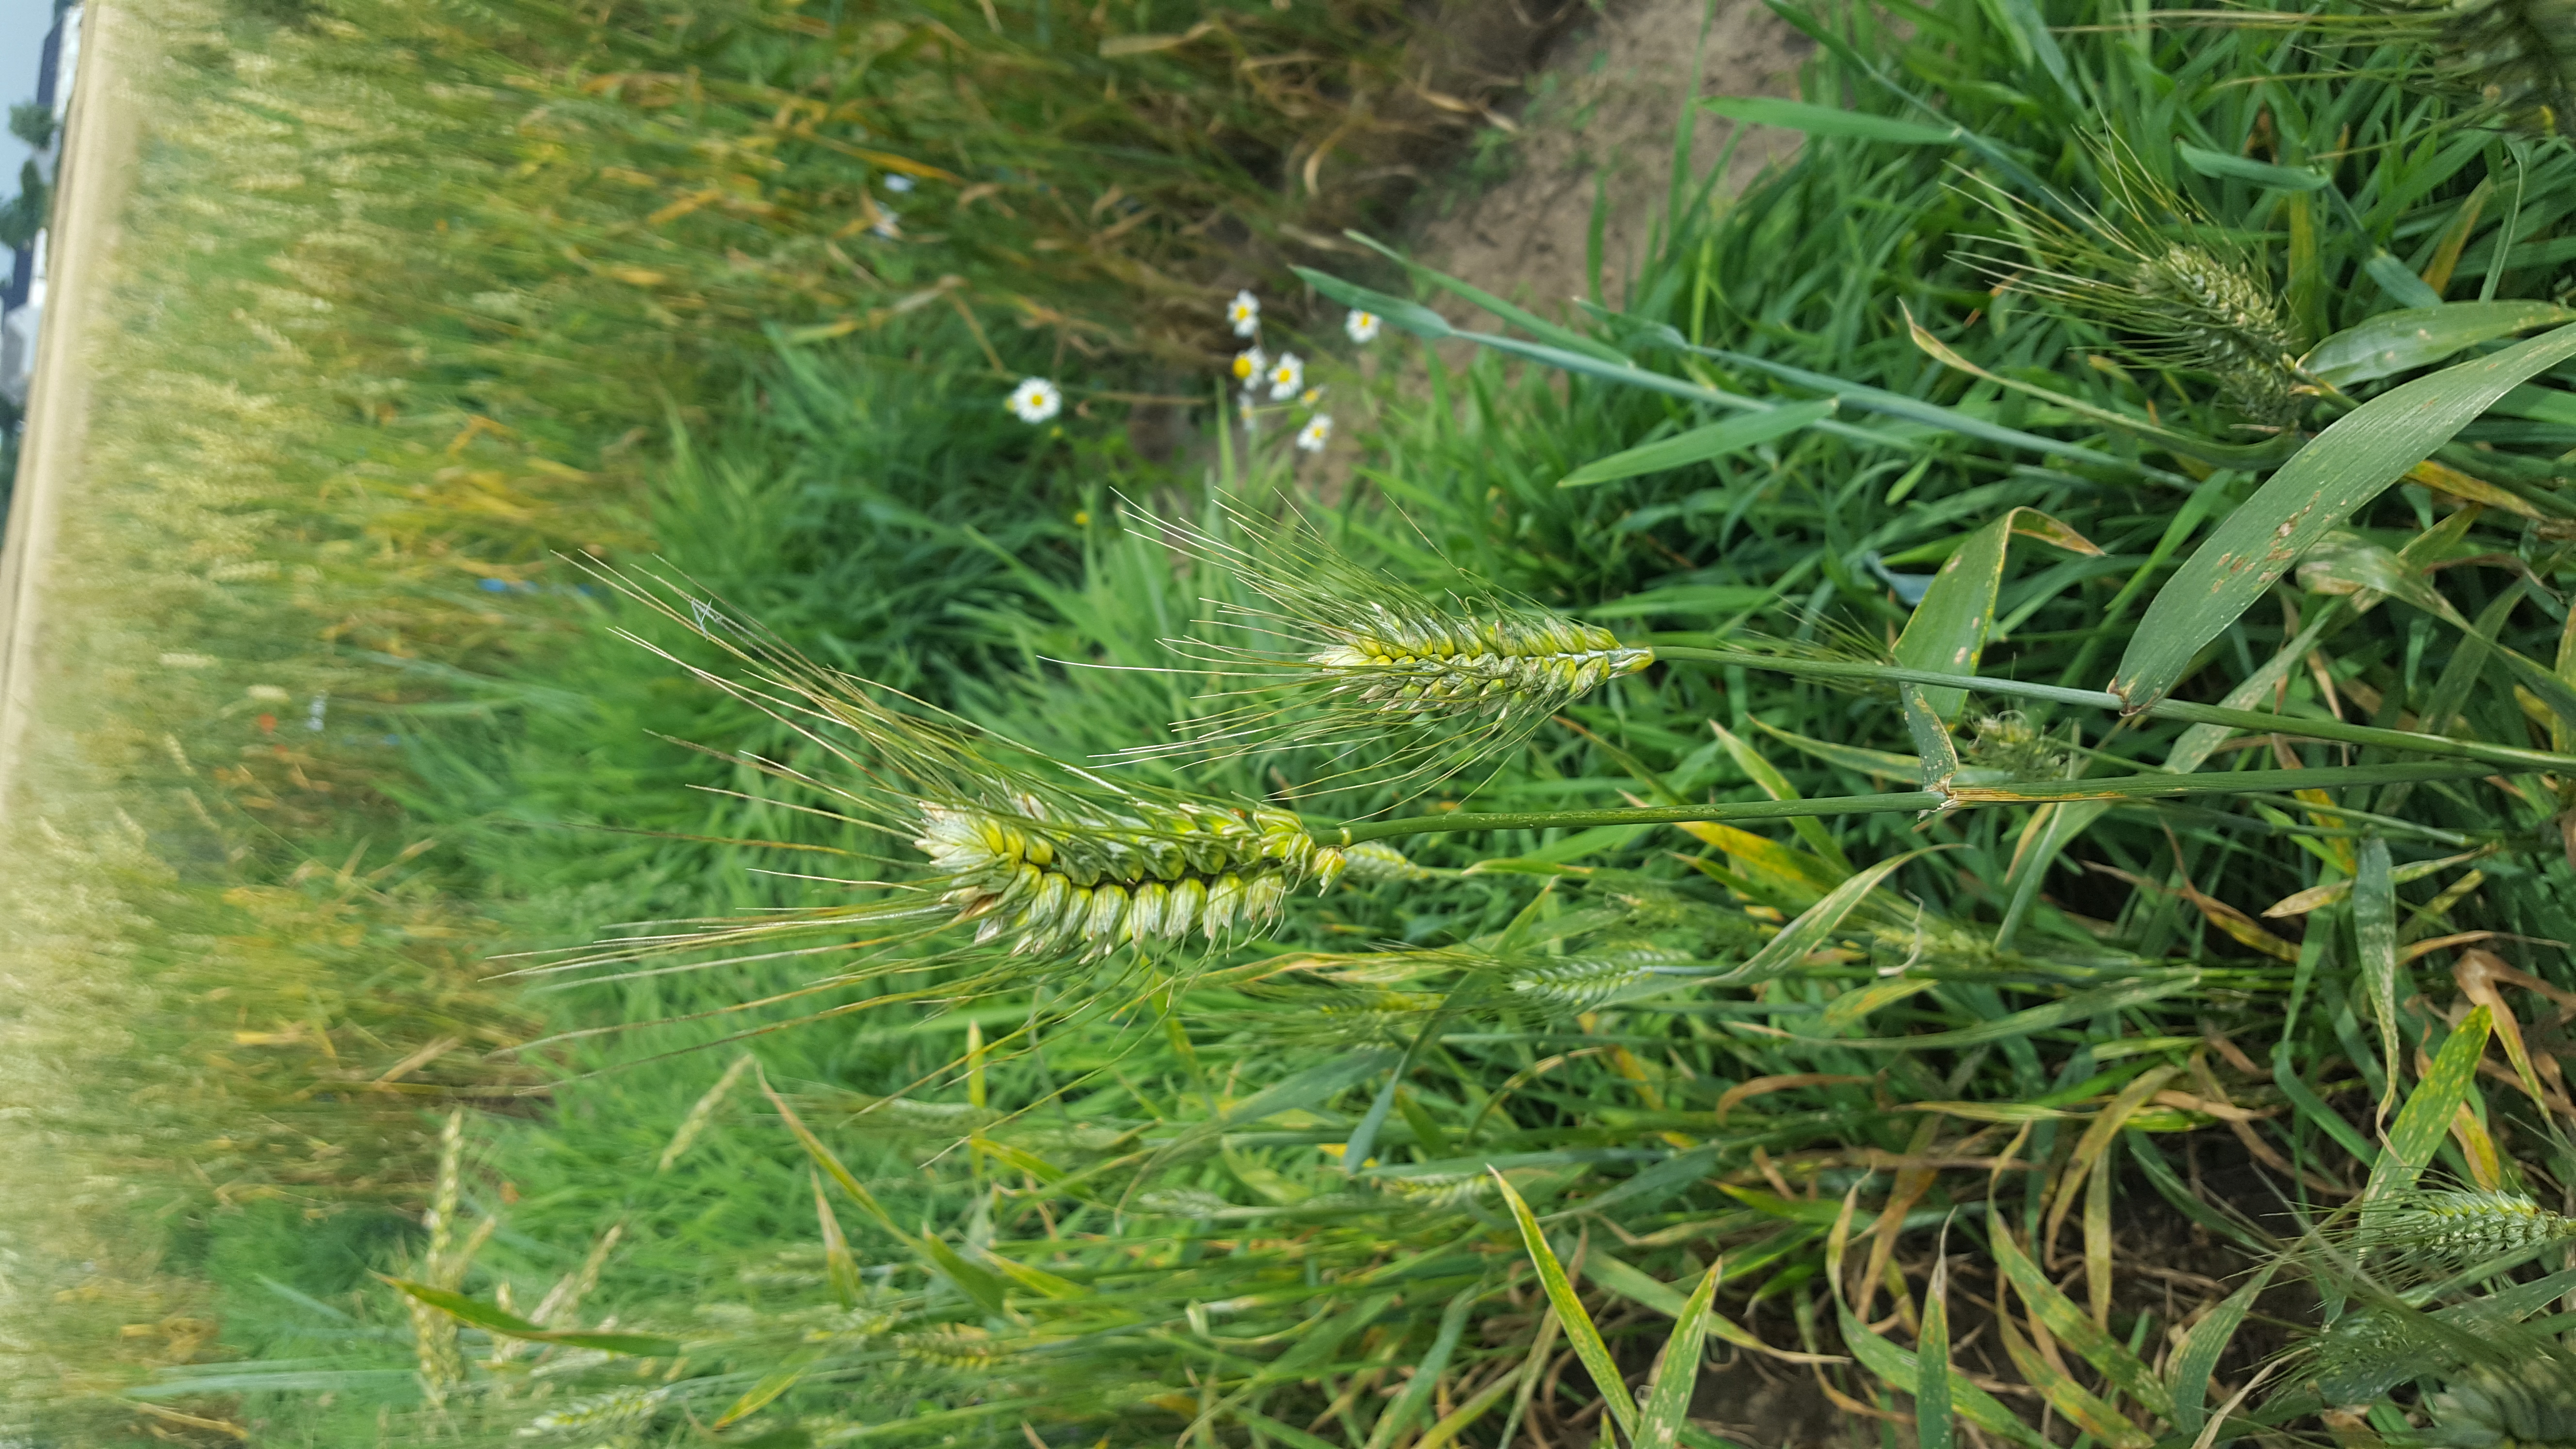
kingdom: Plantae
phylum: Tracheophyta
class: Liliopsida
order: Poales
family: Poaceae
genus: Triticum
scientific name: Triticum aestivum
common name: Common wheat
